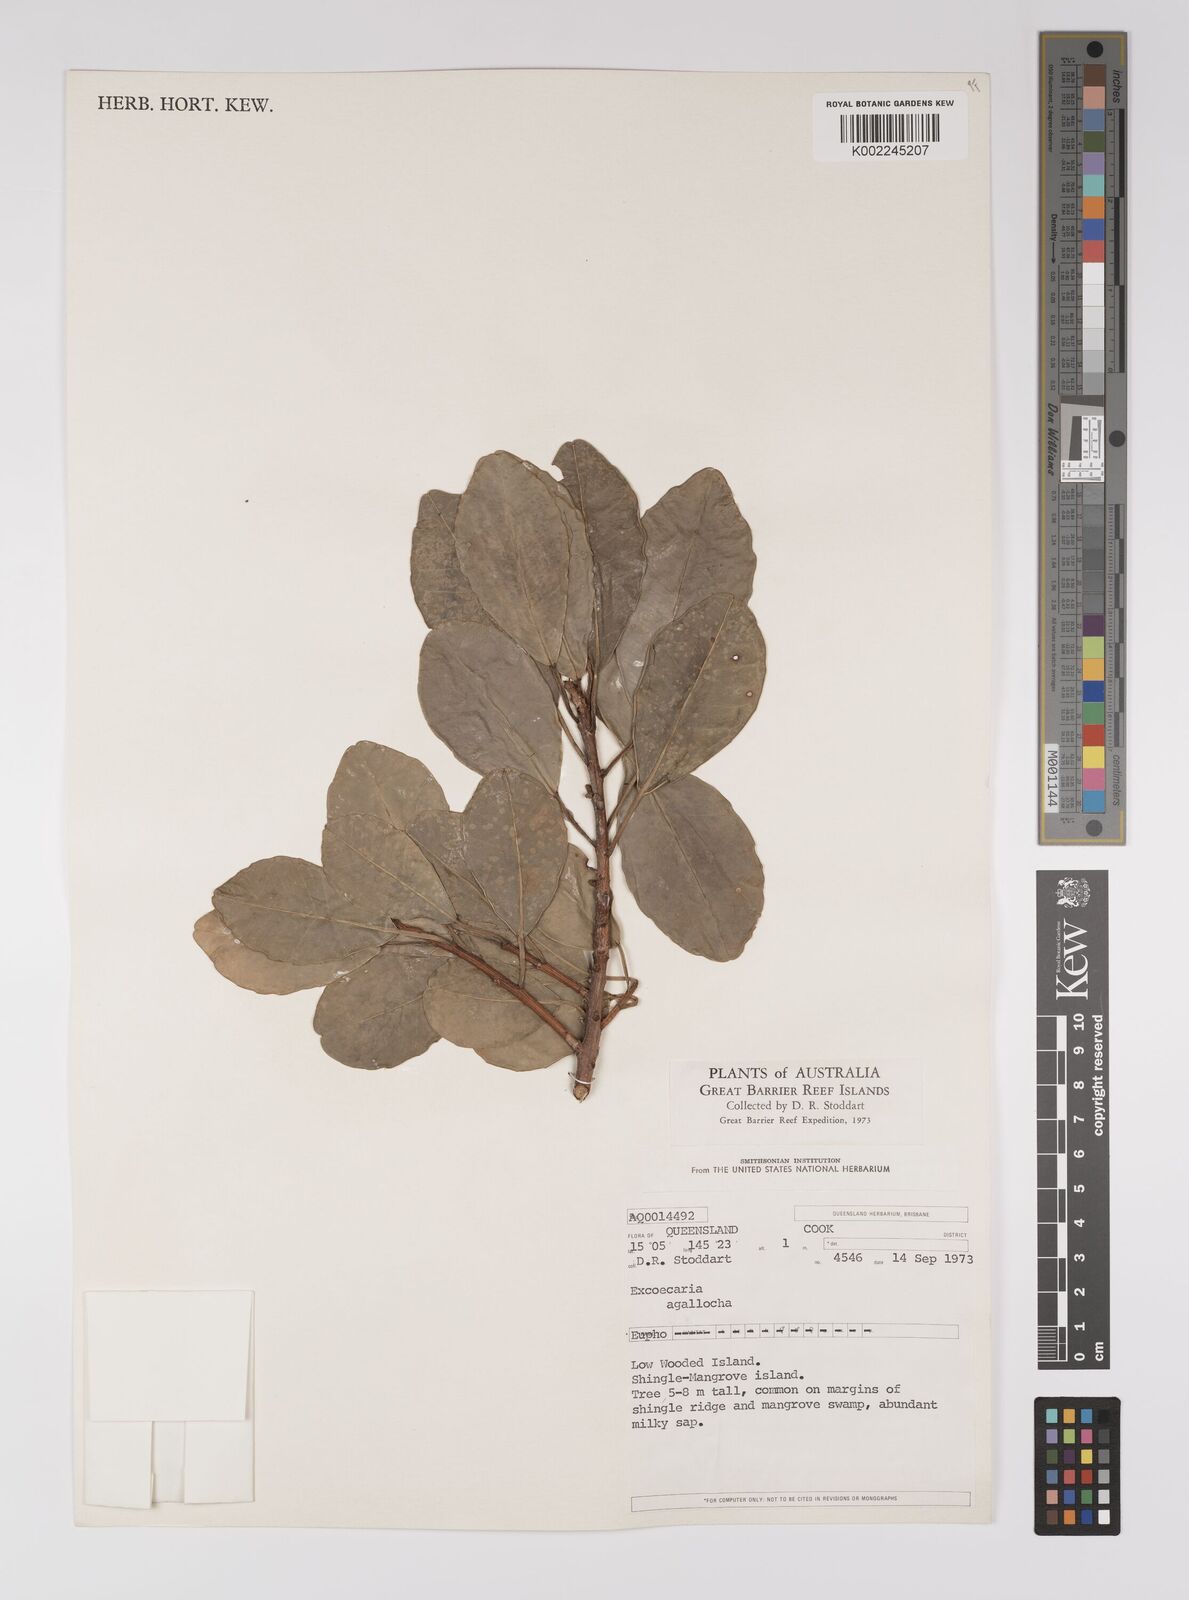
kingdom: Plantae
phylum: Tracheophyta
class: Magnoliopsida
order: Malpighiales
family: Euphorbiaceae
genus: Excoecaria
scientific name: Excoecaria agallocha
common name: River poisontree
